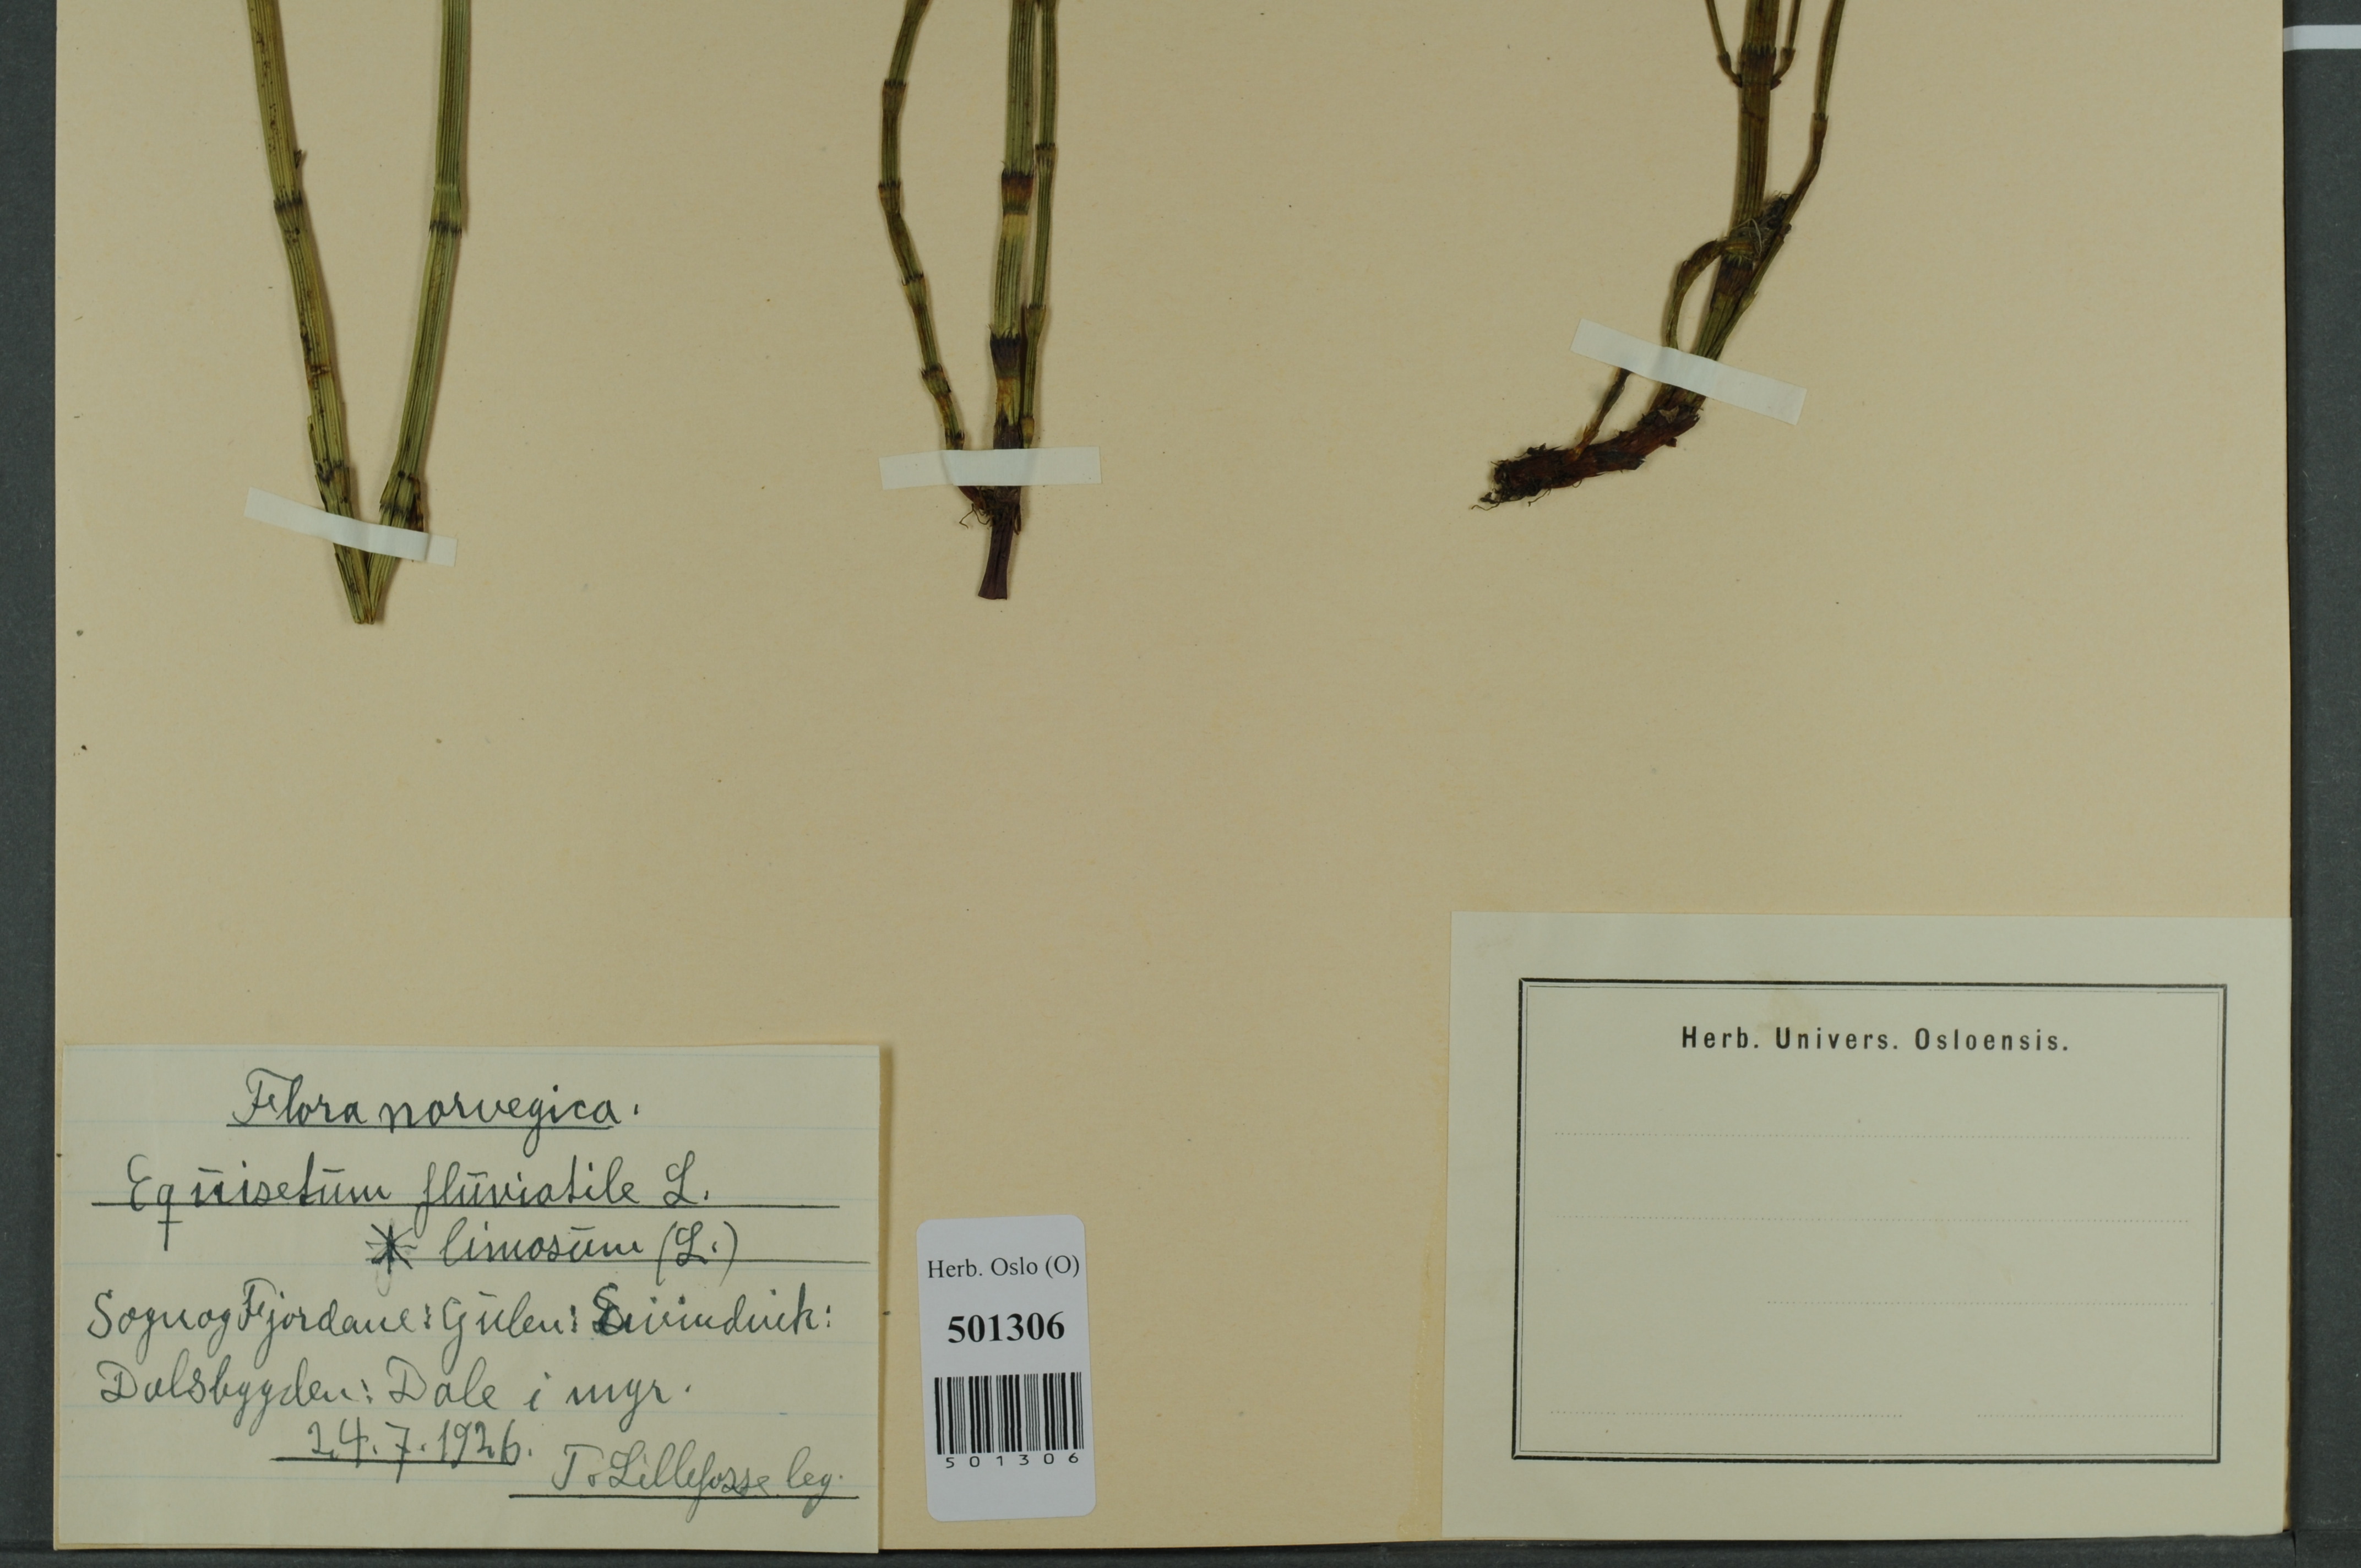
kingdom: Plantae
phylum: Tracheophyta
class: Polypodiopsida
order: Equisetales
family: Equisetaceae
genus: Equisetum
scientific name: Equisetum fluviatile
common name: Water horsetail
